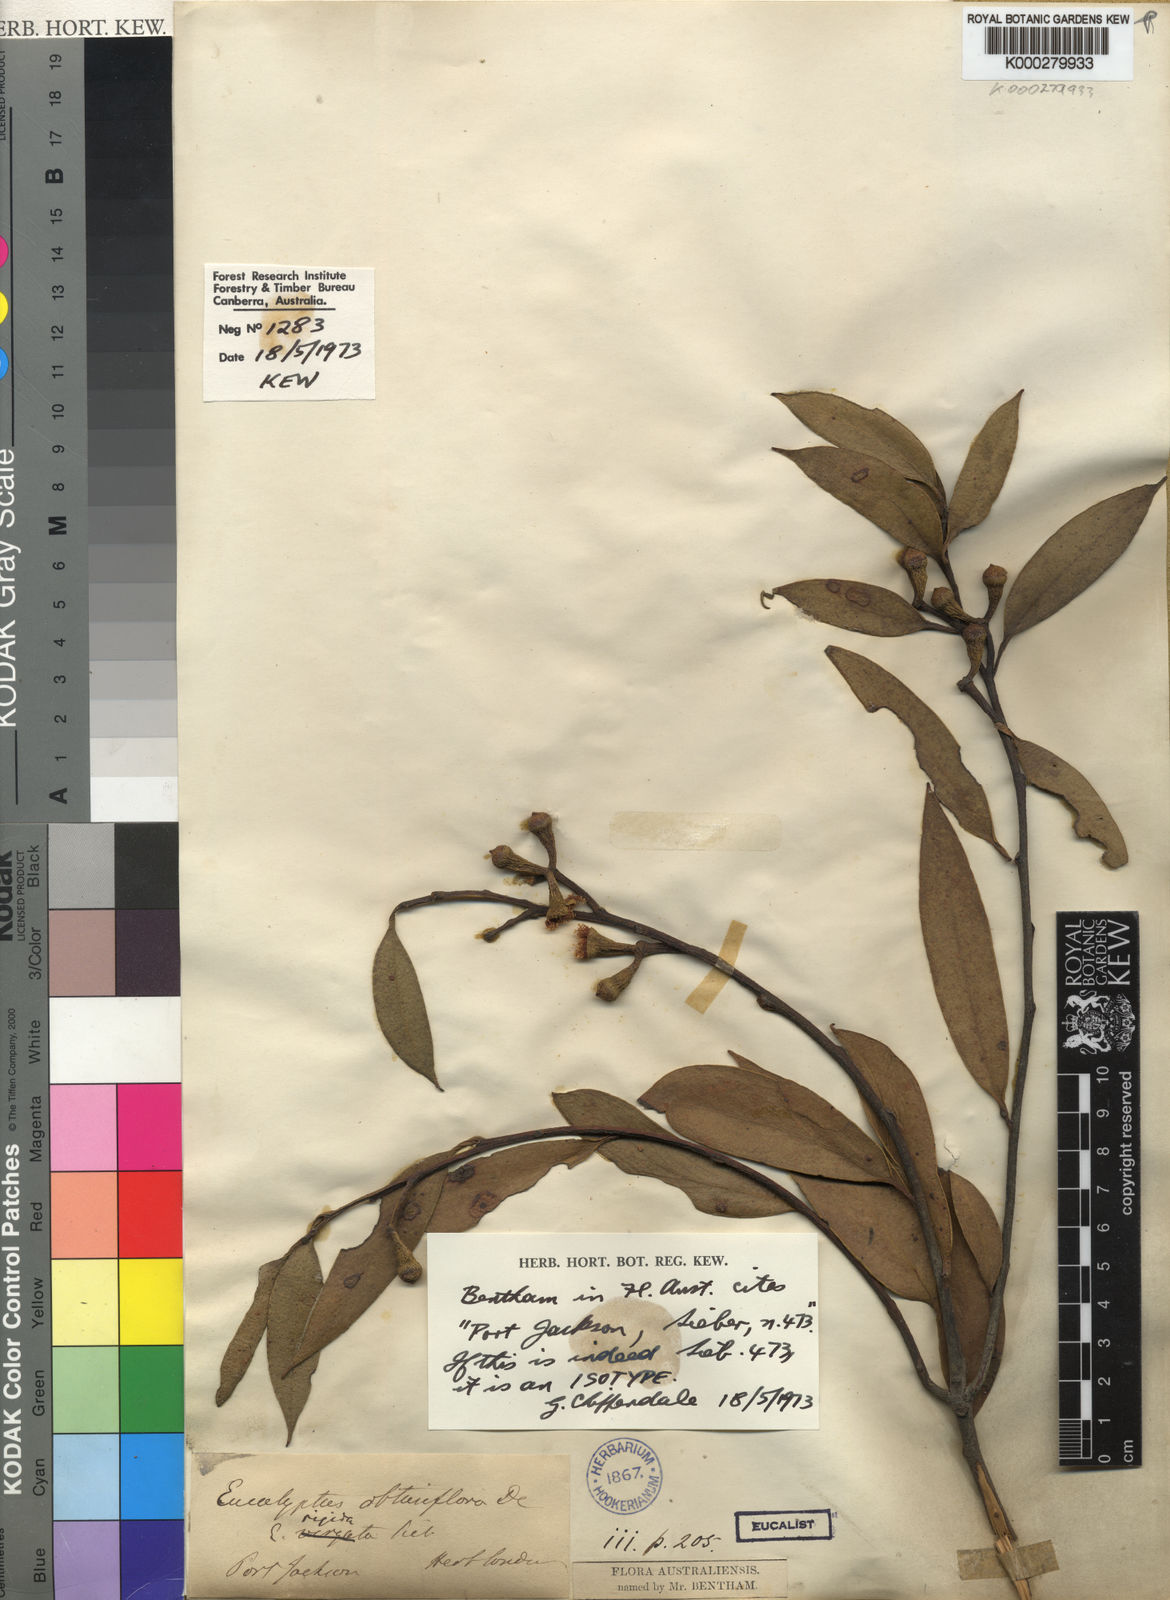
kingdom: Plantae
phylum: Tracheophyta
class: Magnoliopsida
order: Myrtales
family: Myrtaceae
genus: Eucalyptus
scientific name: Eucalyptus obtusiflora
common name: Dongara-mallee
